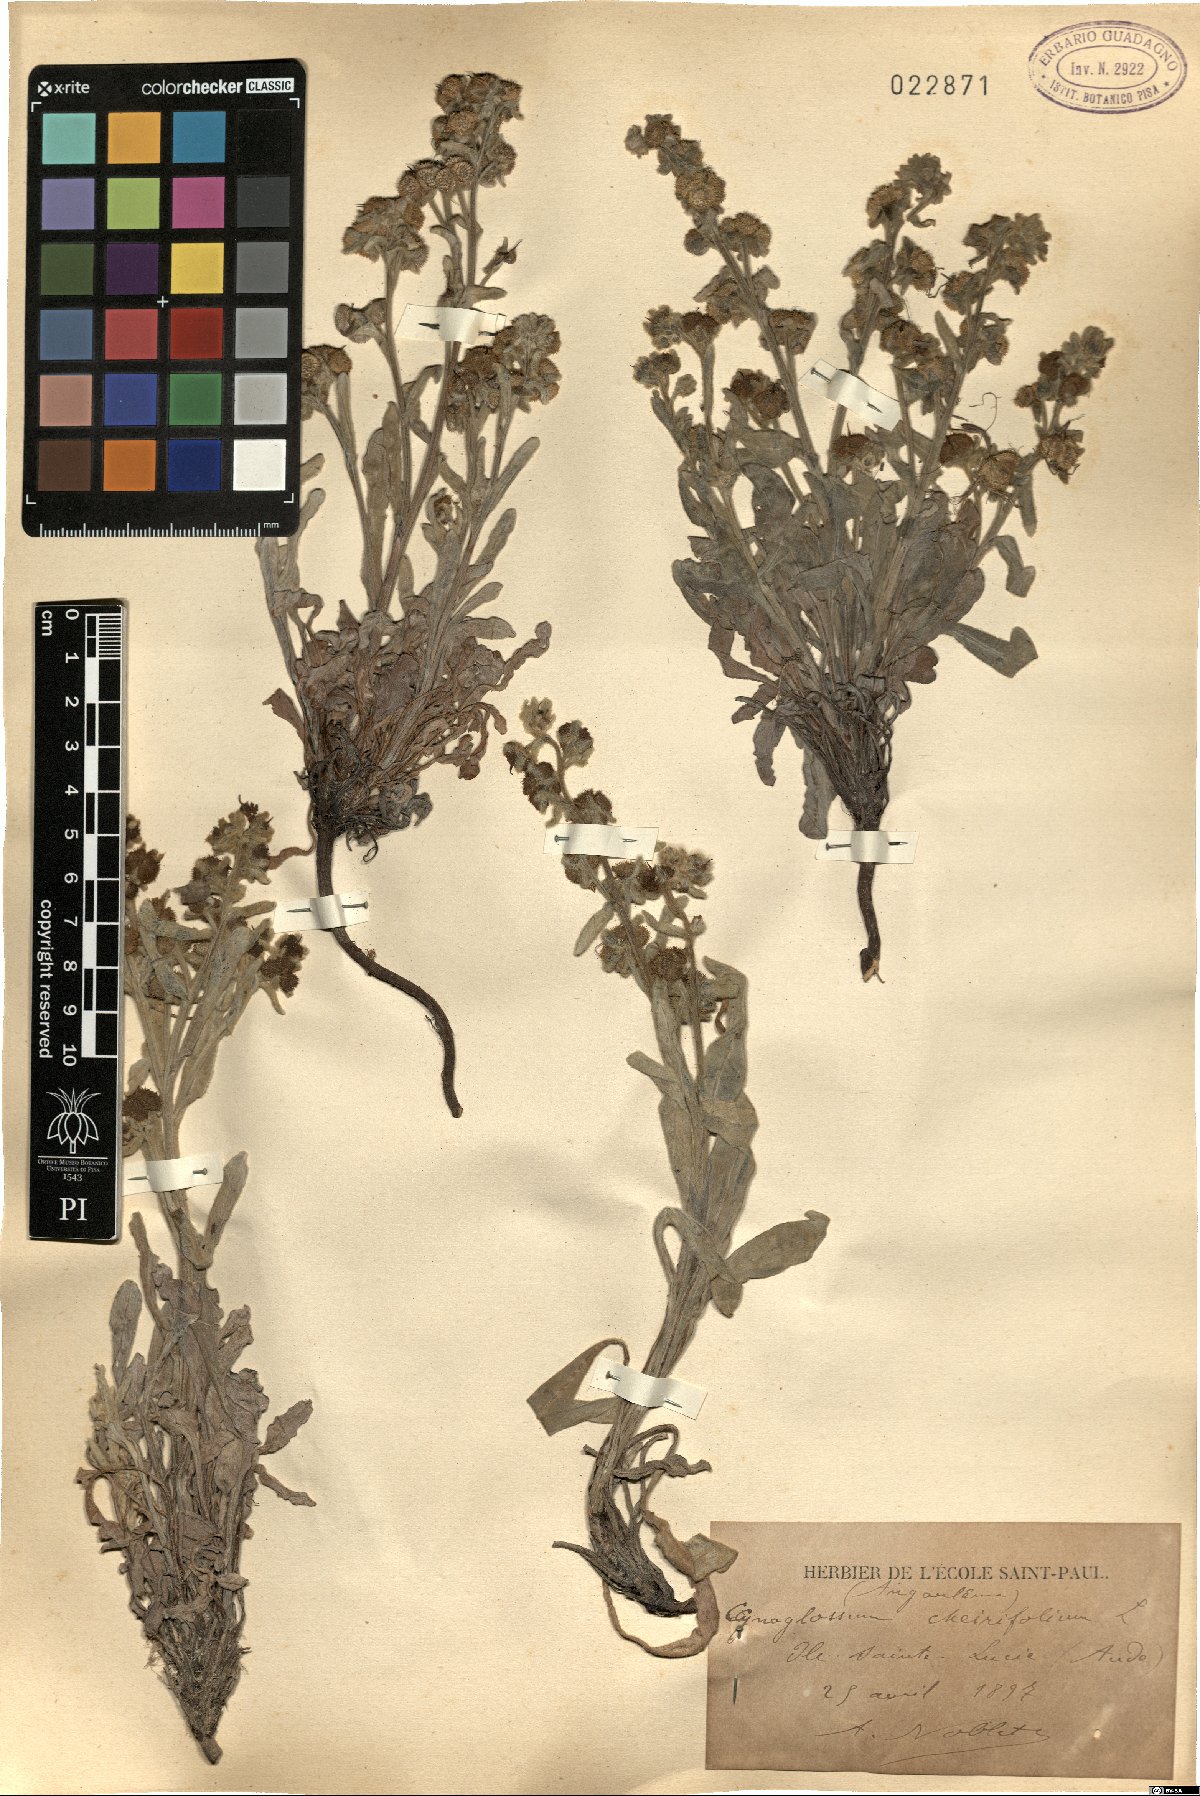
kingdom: Plantae
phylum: Tracheophyta
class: Magnoliopsida
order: Boraginales
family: Boraginaceae
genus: Pardoglossum
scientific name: Pardoglossum cheirifolium
